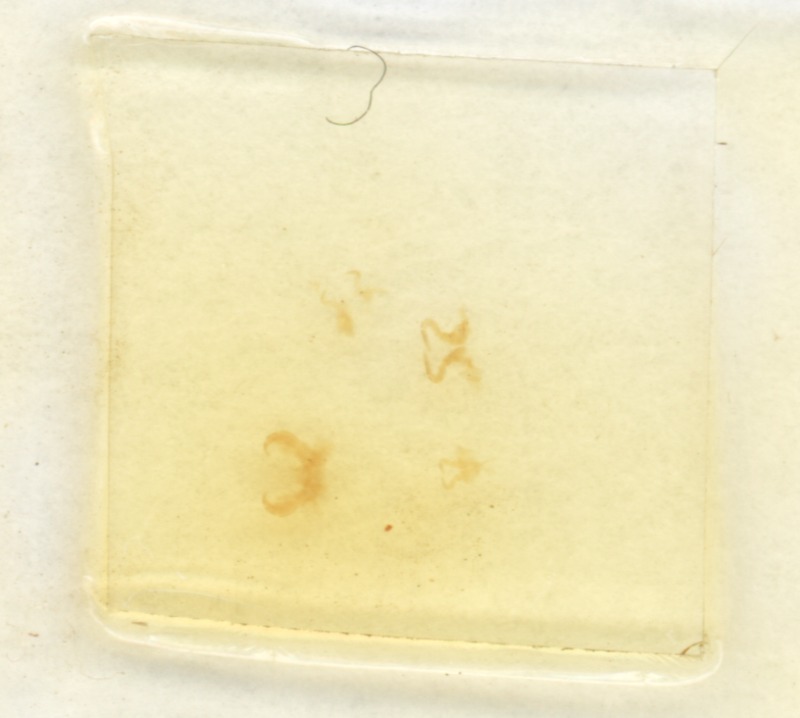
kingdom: Animalia
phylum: Arthropoda
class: Diplopoda
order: Glomerida
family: Glomeridae
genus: Glomeris
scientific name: Glomeris connexa
